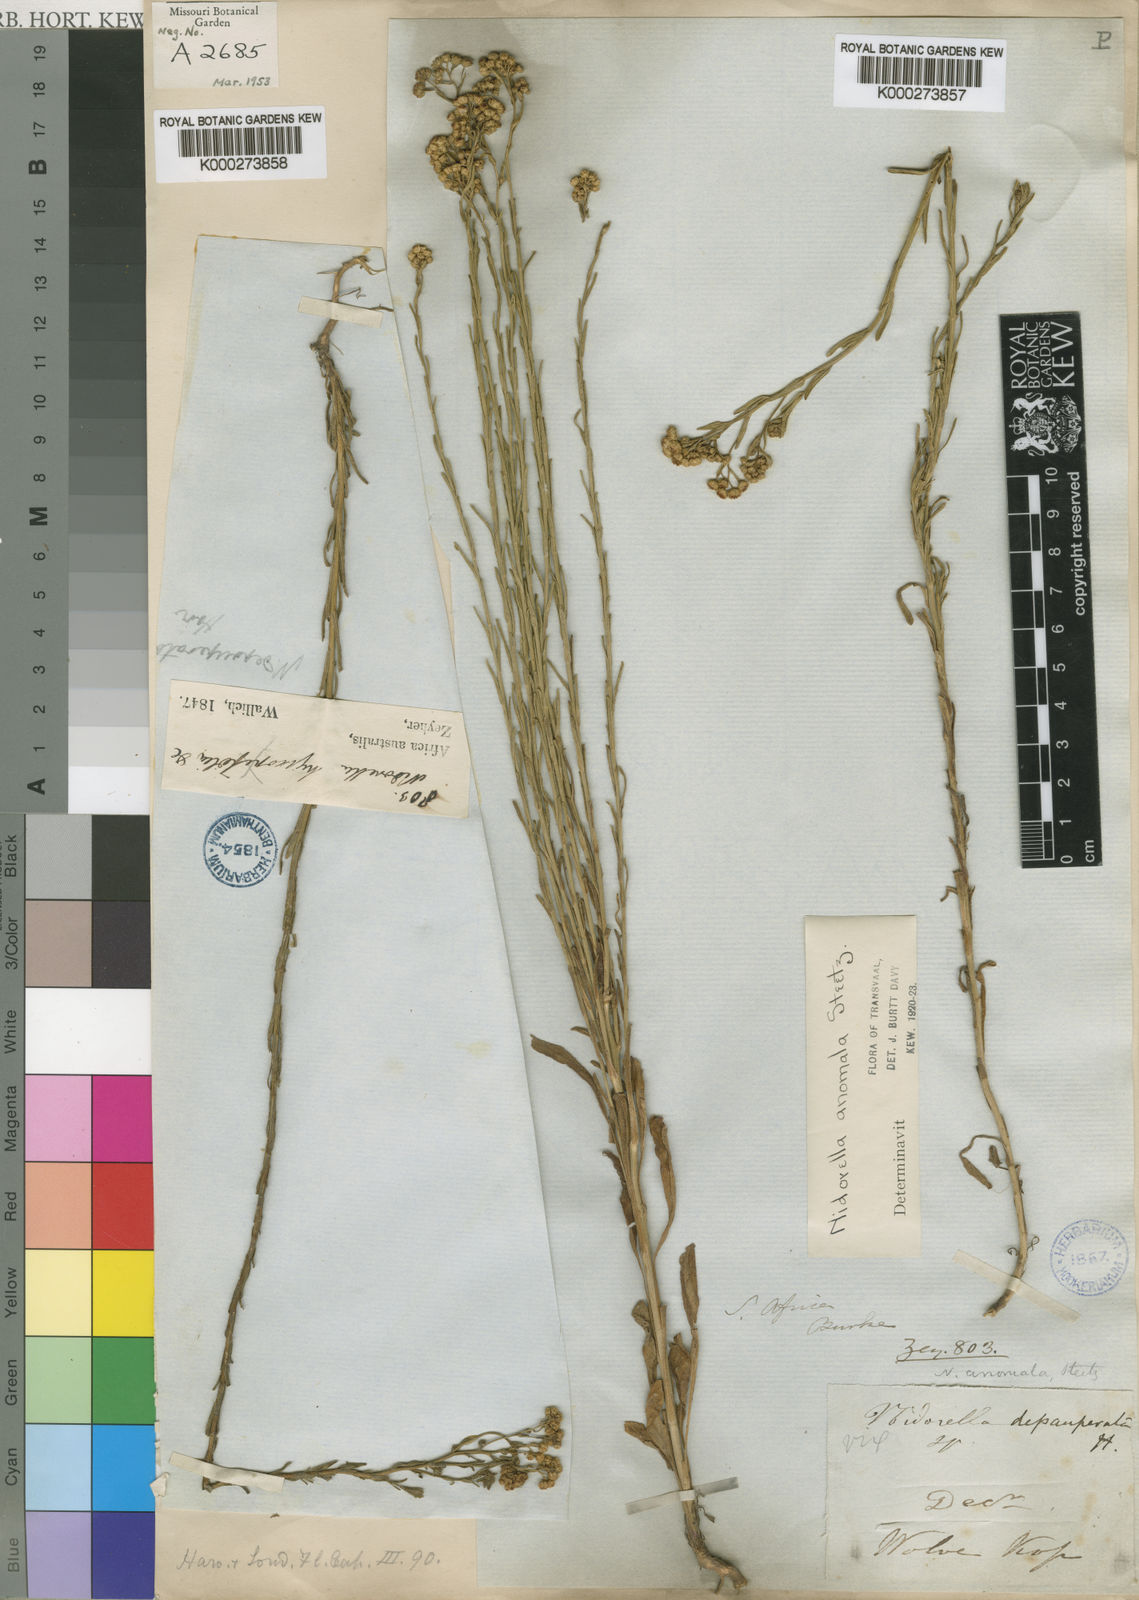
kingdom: Plantae
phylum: Tracheophyta
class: Magnoliopsida
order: Asterales
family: Asteraceae
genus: Nidorella
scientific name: Nidorella anomala
